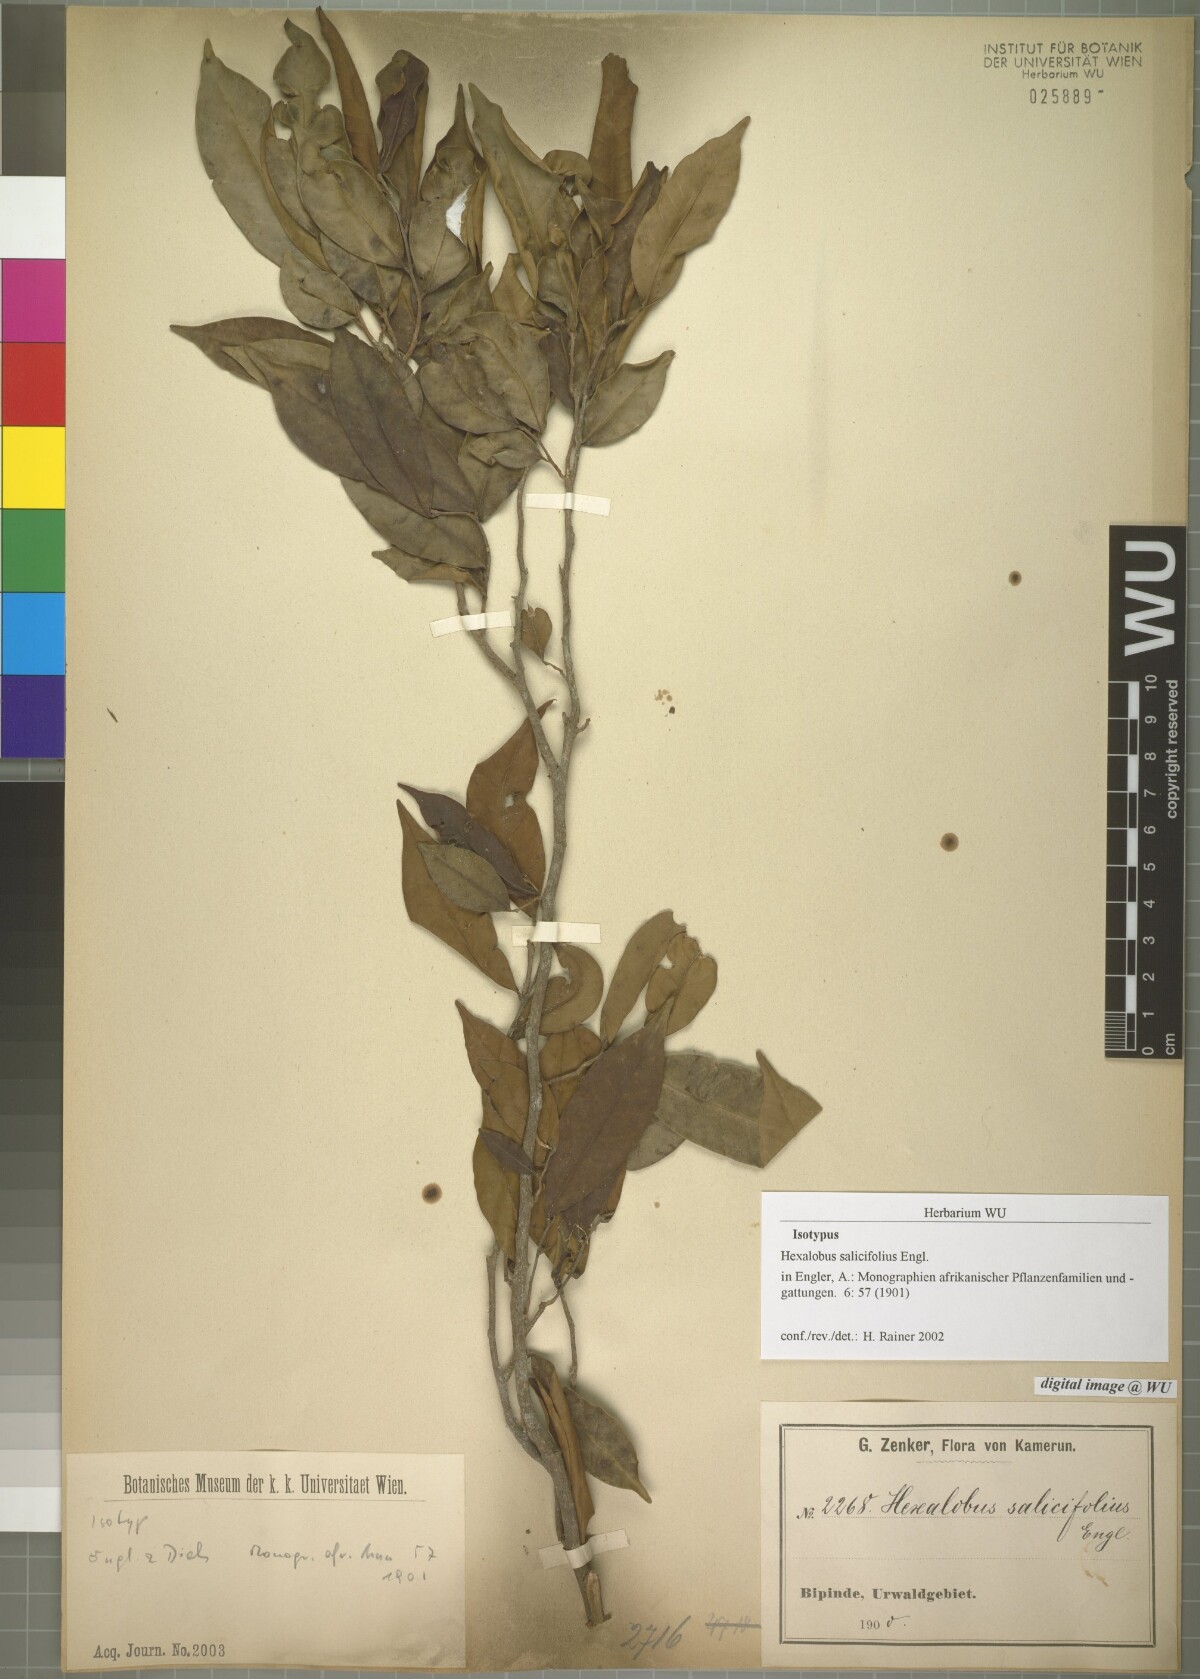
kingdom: Plantae
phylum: Tracheophyta
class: Magnoliopsida
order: Magnoliales
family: Annonaceae
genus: Hexalobus
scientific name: Hexalobus salicifolius
